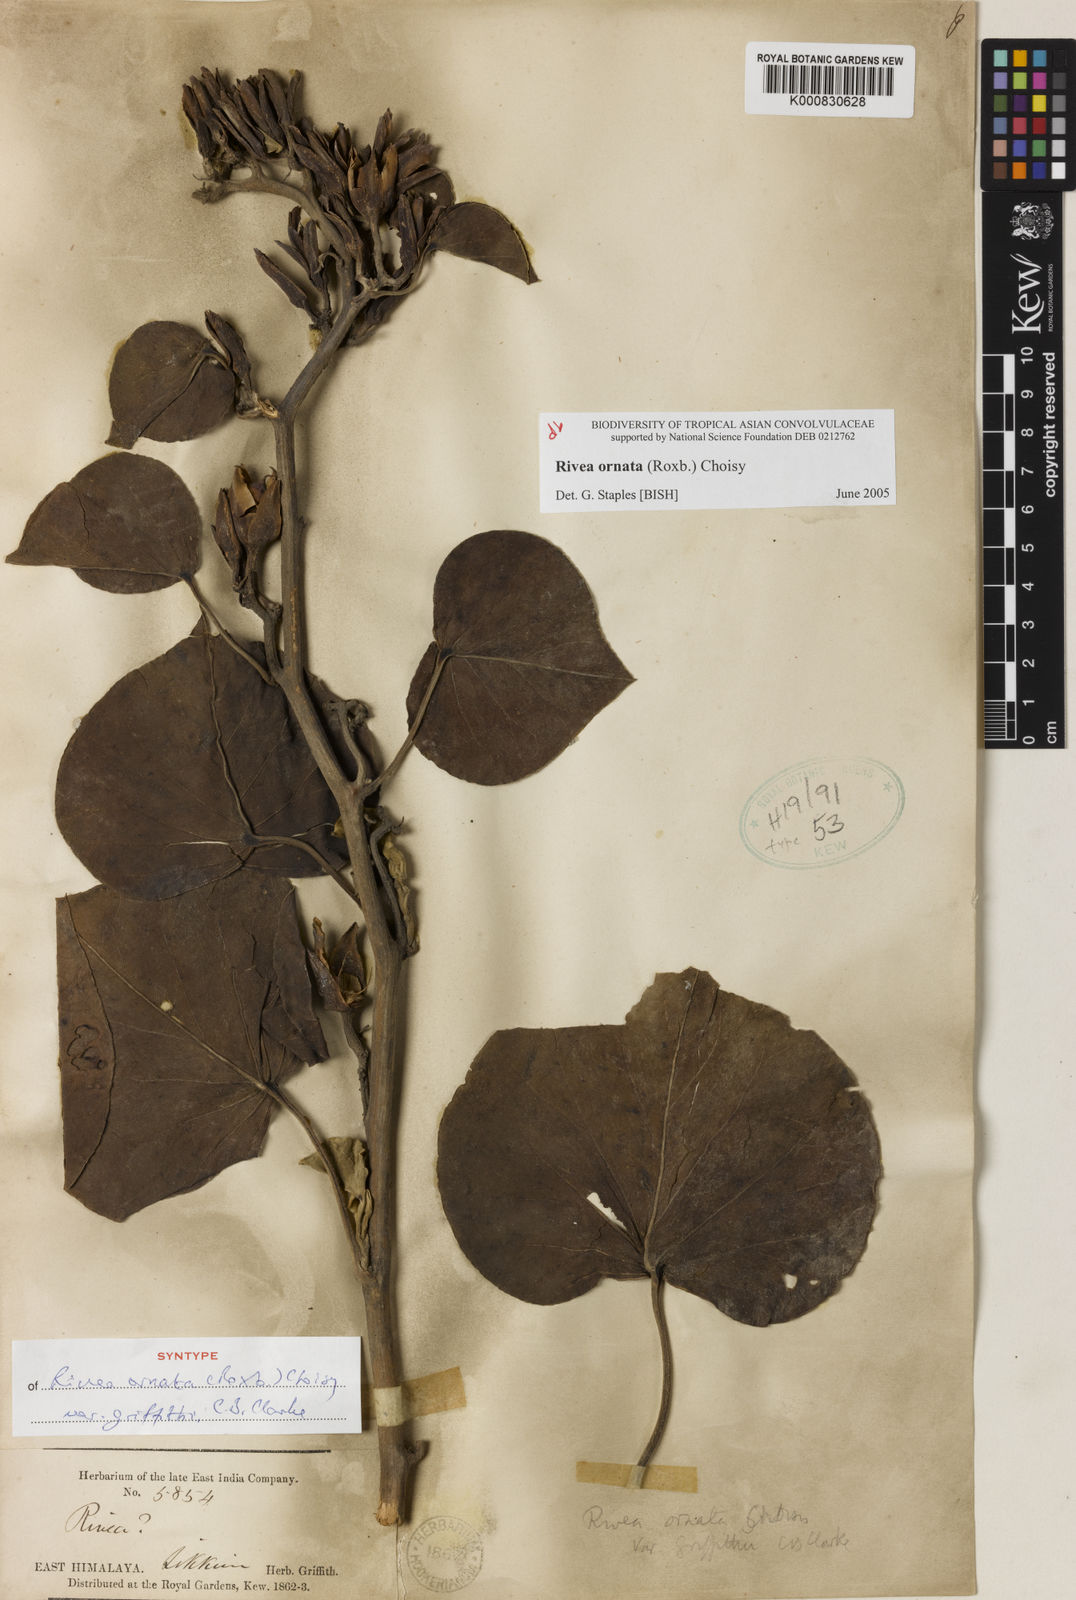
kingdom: Plantae
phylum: Tracheophyta
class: Magnoliopsida
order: Solanales
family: Convolvulaceae
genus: Rivea
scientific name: Rivea ornata
